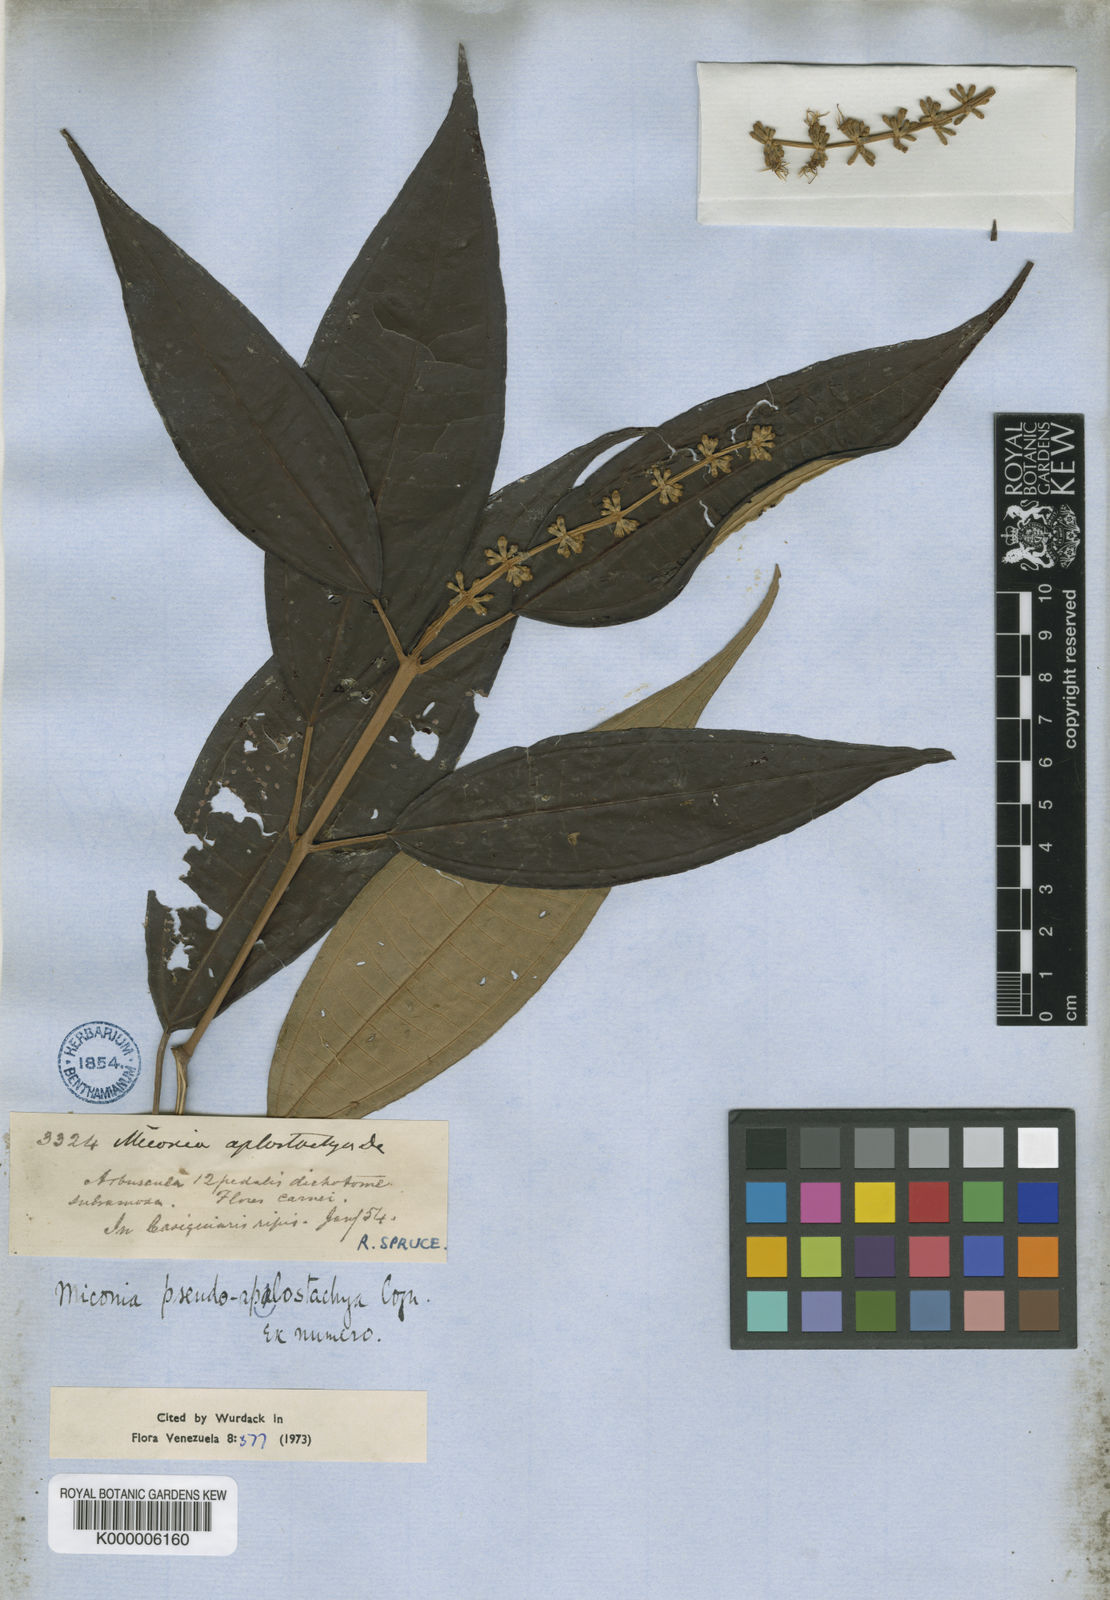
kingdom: Plantae
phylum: Tracheophyta
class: Magnoliopsida
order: Myrtales
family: Melastomataceae
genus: Miconia
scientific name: Miconia pseudoaplostachya
